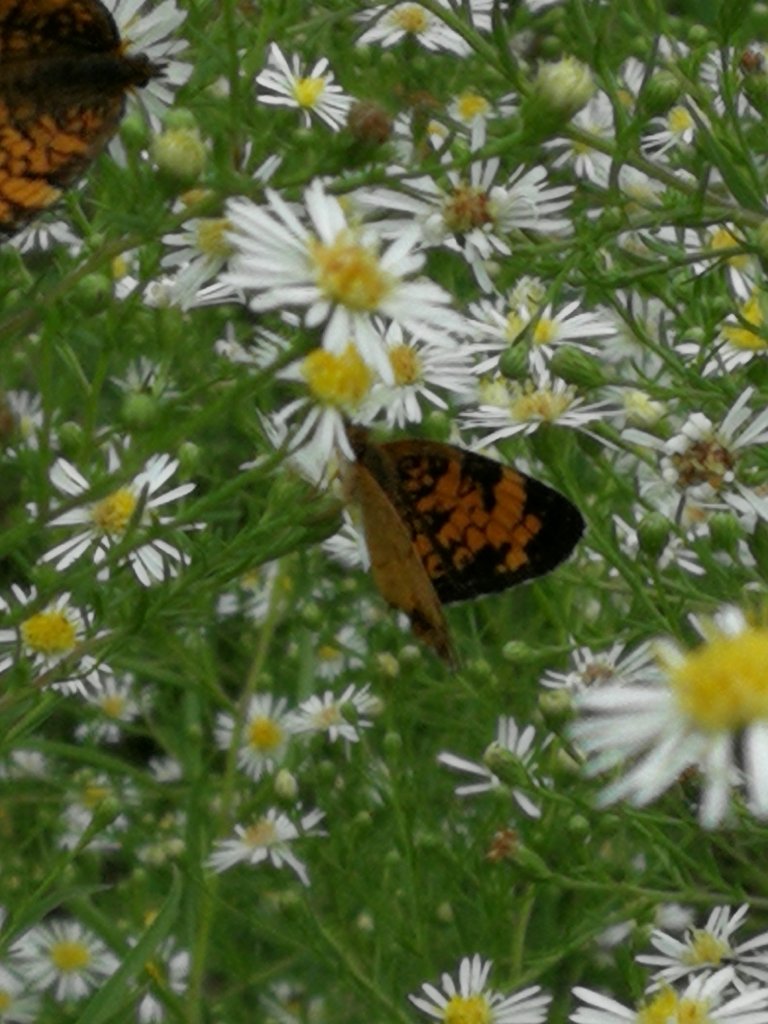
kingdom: Animalia
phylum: Arthropoda
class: Insecta
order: Lepidoptera
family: Nymphalidae
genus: Phyciodes
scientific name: Phyciodes
